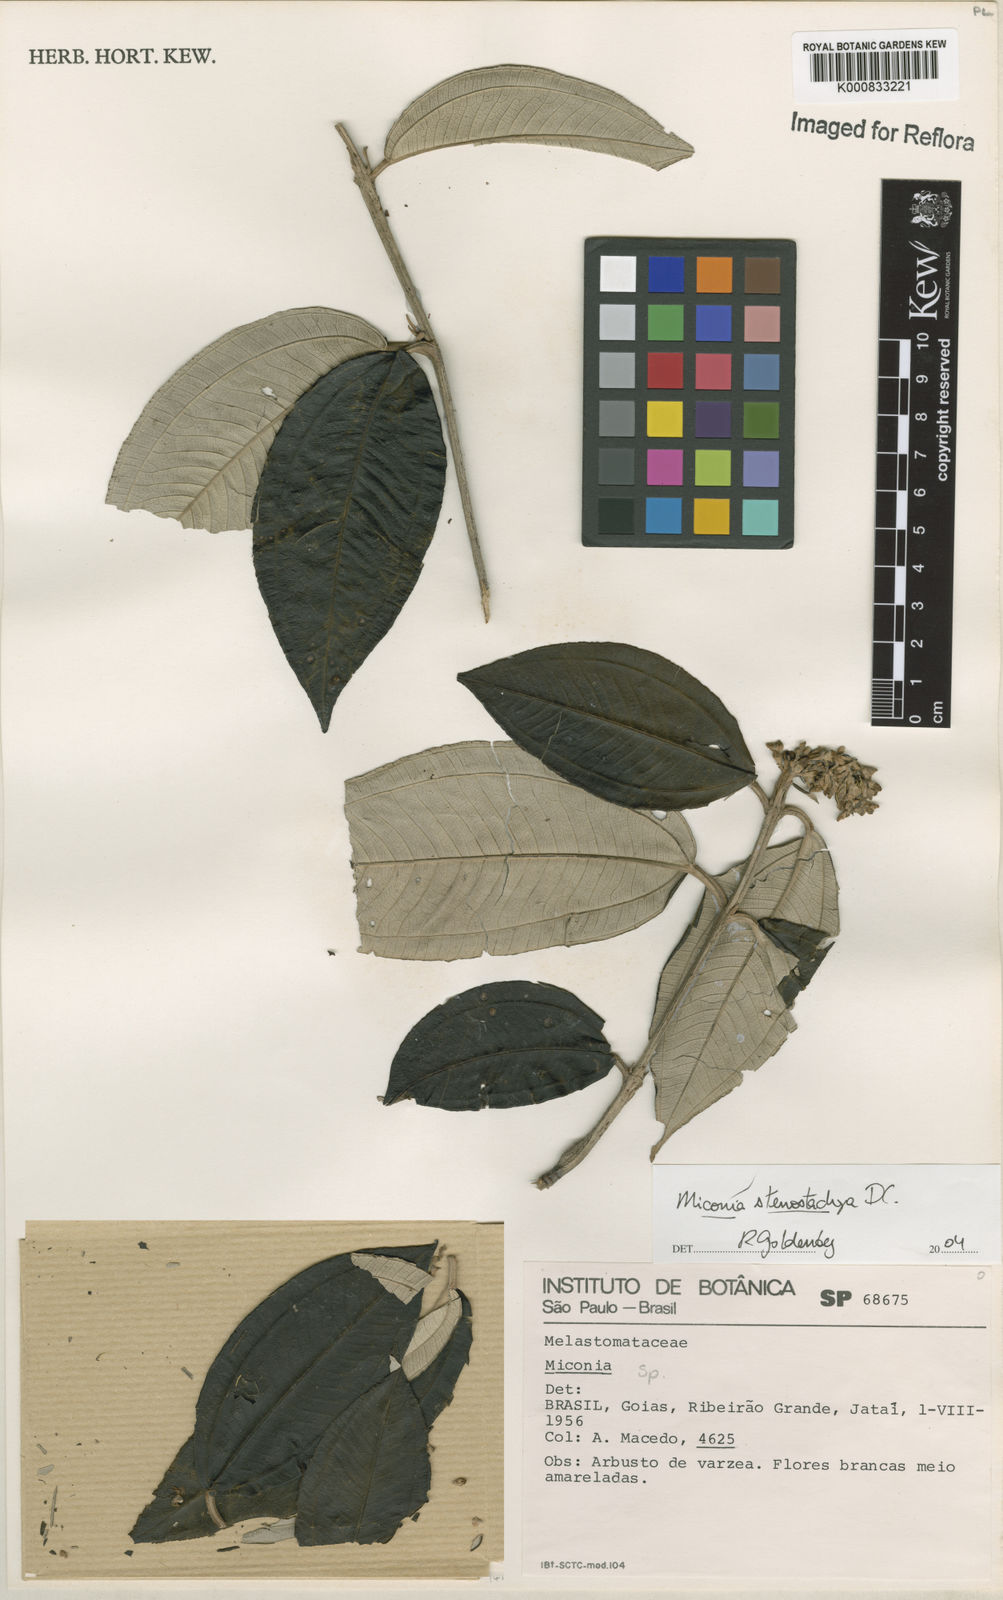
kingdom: Plantae
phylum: Tracheophyta
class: Magnoliopsida
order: Myrtales
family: Melastomataceae
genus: Miconia
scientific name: Miconia stenostachya
